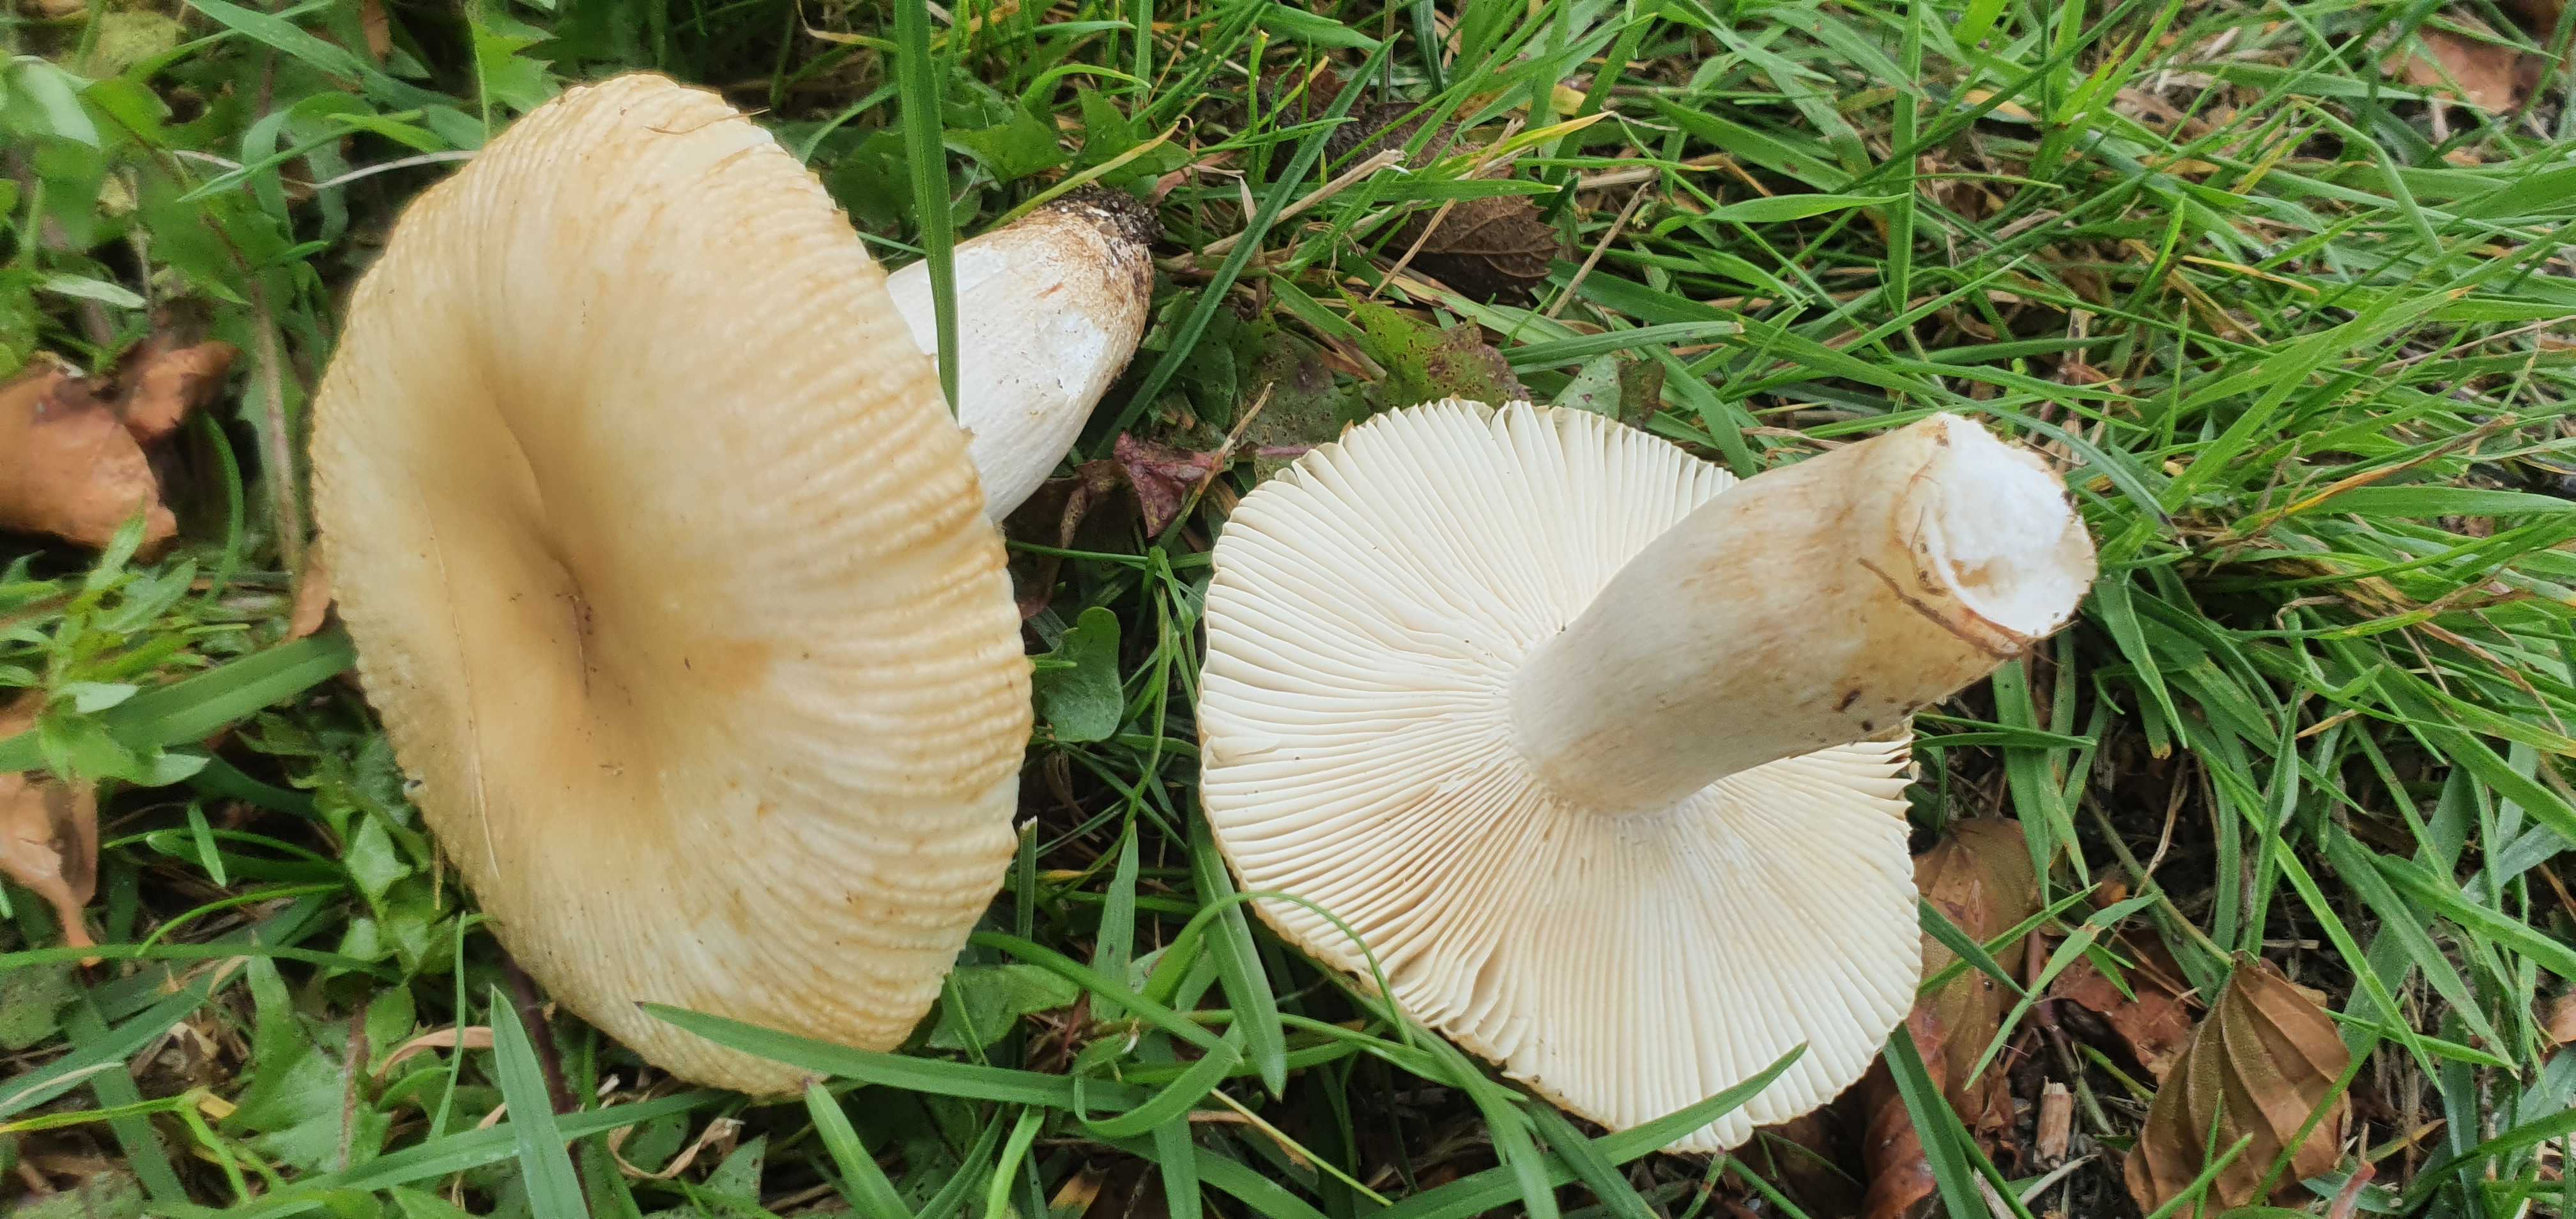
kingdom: Fungi
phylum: Basidiomycota
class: Agaricomycetes
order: Russulales
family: Russulaceae
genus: Russula
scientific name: Russula recondita
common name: mild kam-skørhat
